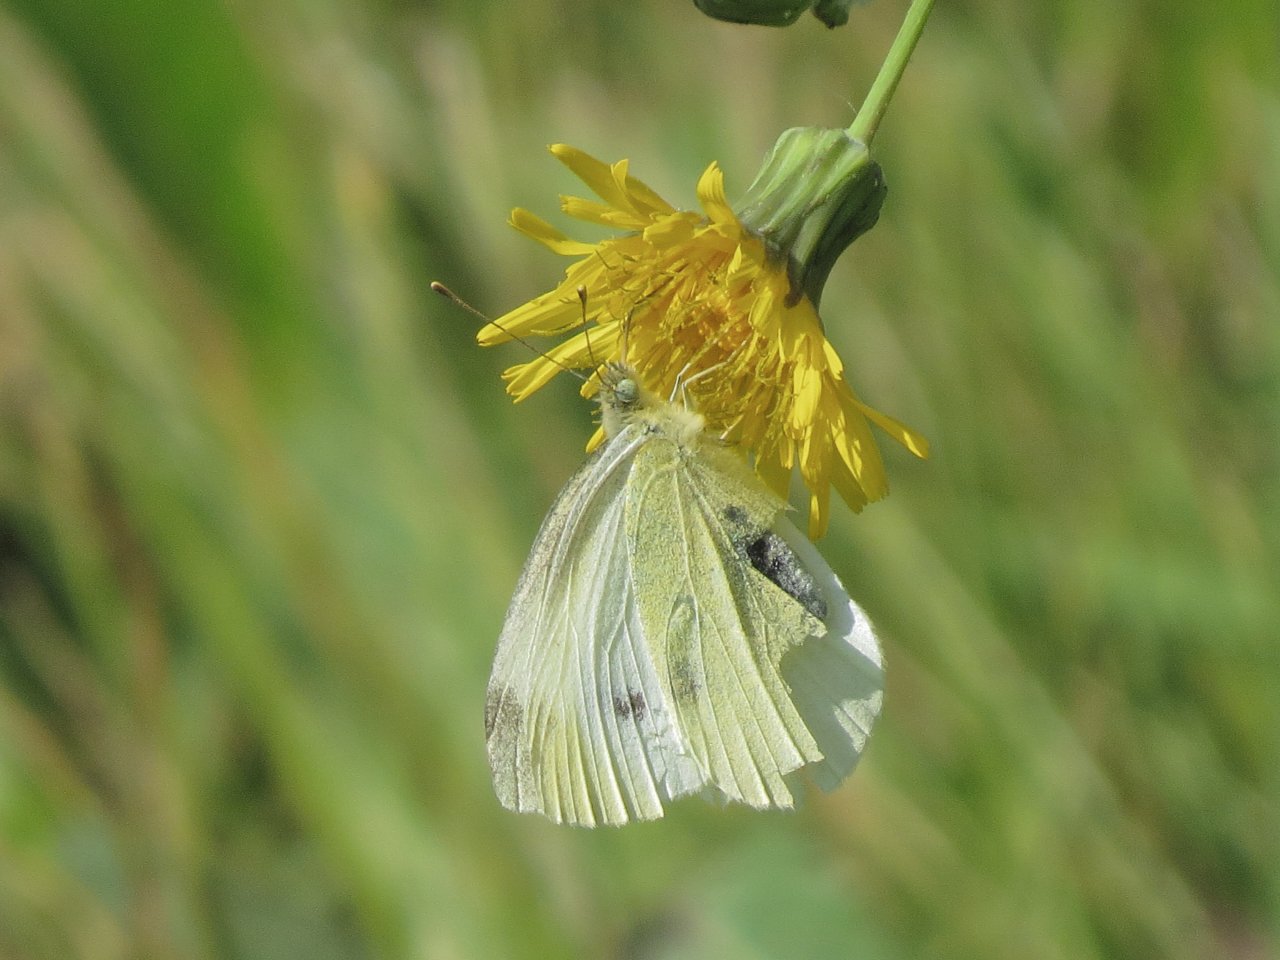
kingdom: Animalia
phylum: Arthropoda
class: Insecta
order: Lepidoptera
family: Pieridae
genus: Pieris
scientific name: Pieris rapae
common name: Cabbage White
